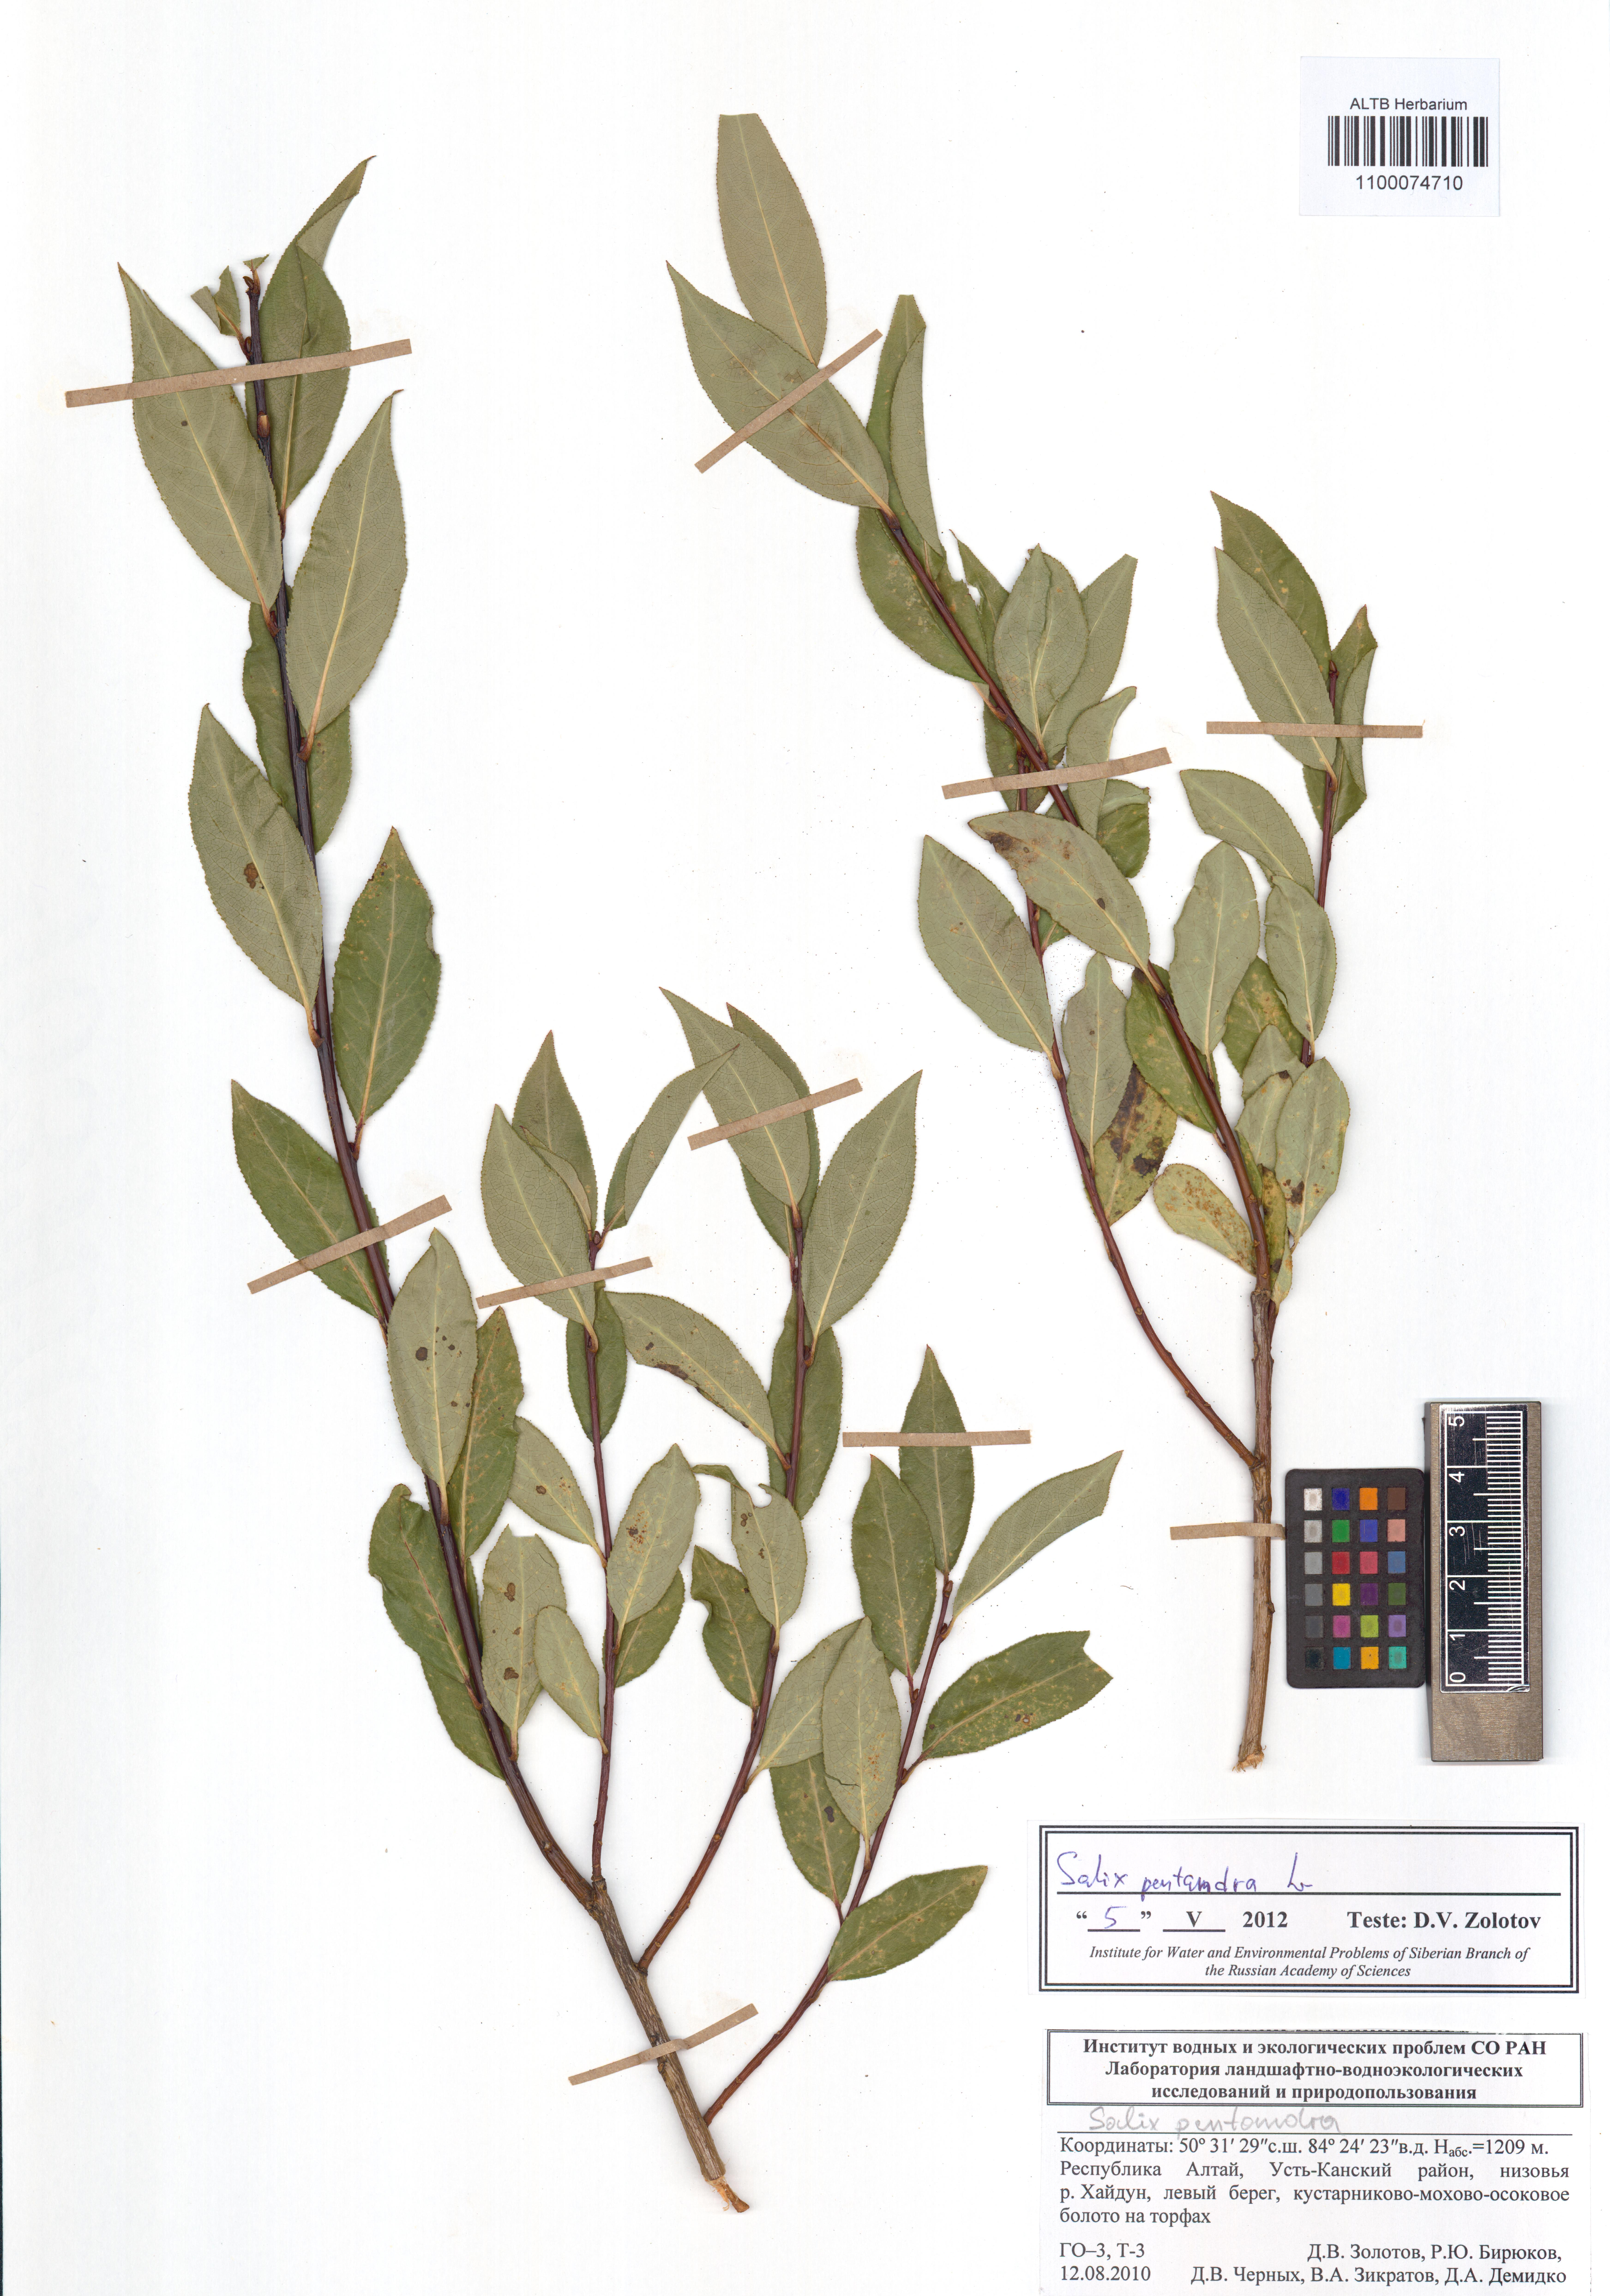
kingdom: Plantae
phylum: Tracheophyta
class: Magnoliopsida
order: Malpighiales
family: Salicaceae
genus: Salix
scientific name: Salix pentandra
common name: Bay willow
